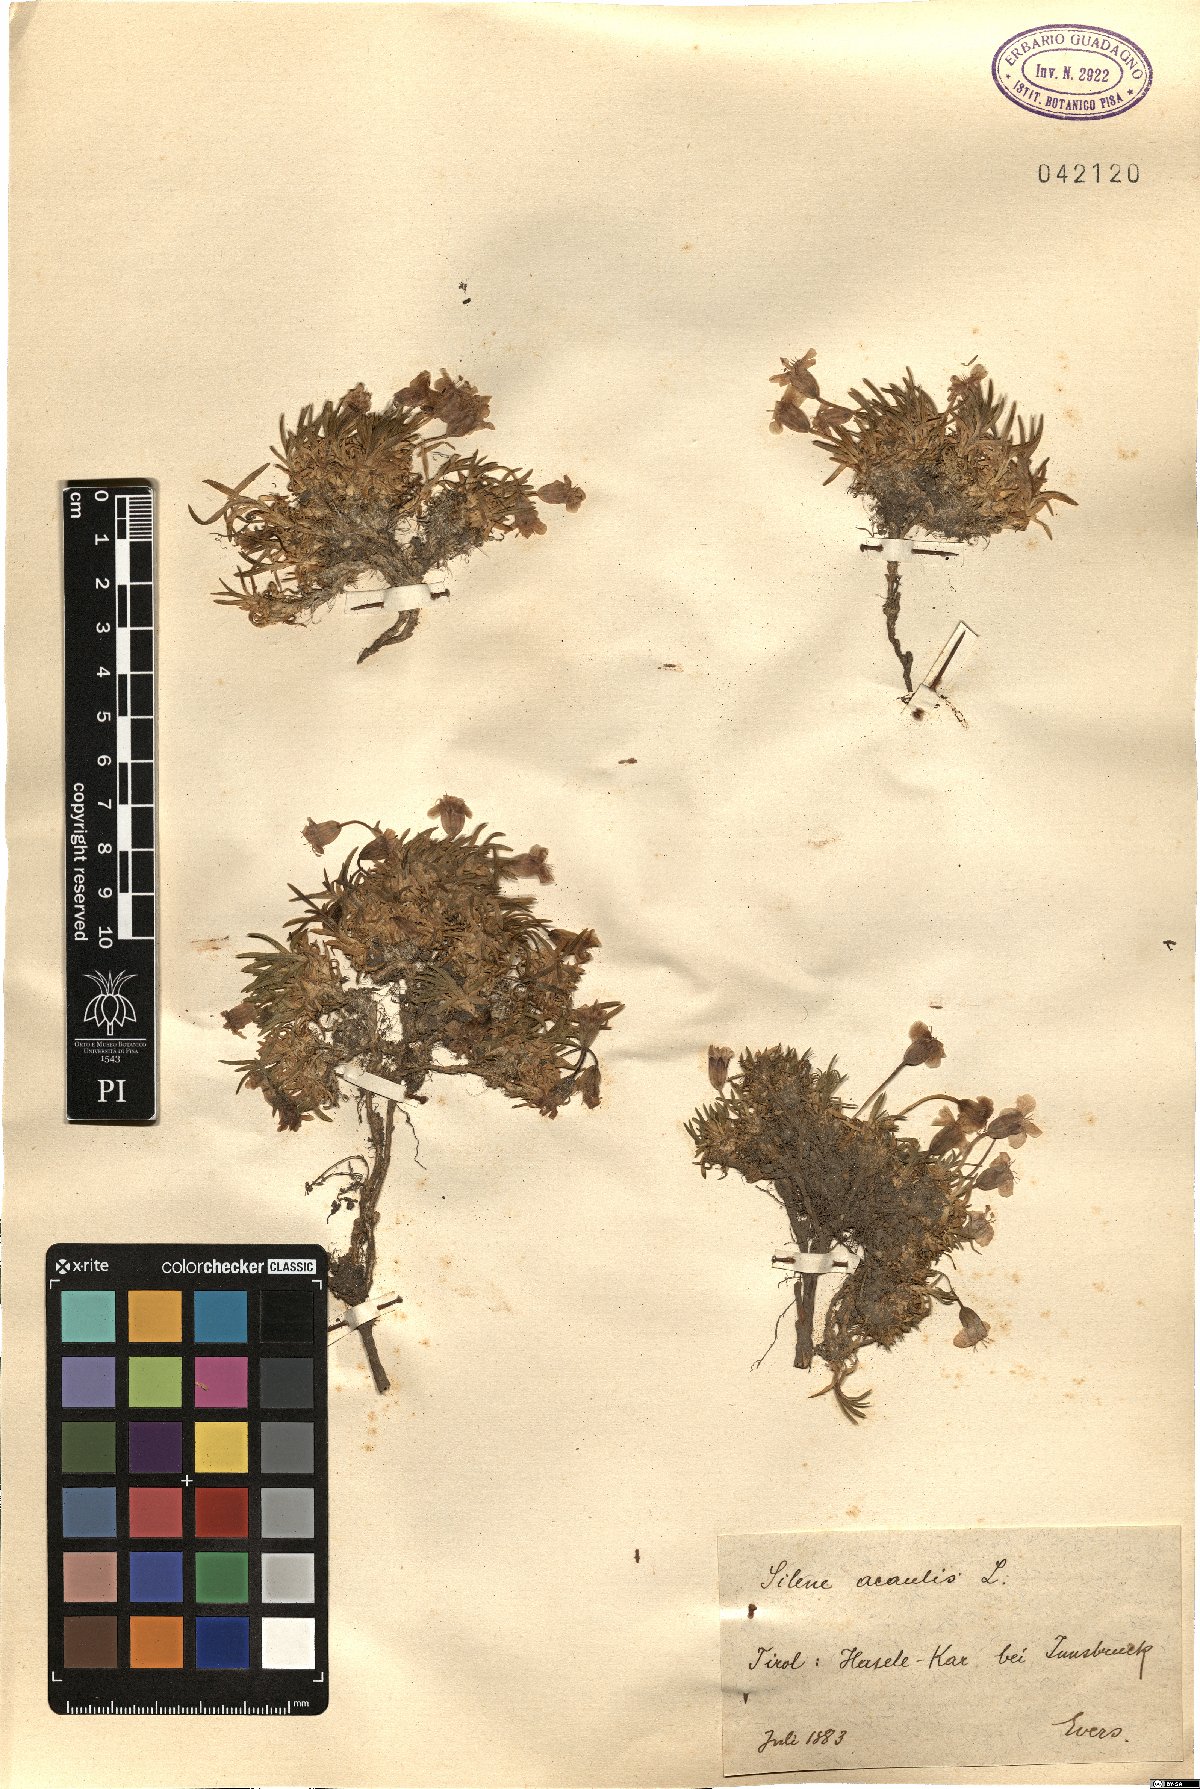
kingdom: Plantae
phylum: Tracheophyta
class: Magnoliopsida
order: Caryophyllales
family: Caryophyllaceae
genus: Silene
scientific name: Silene acaulis
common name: Moss campion
